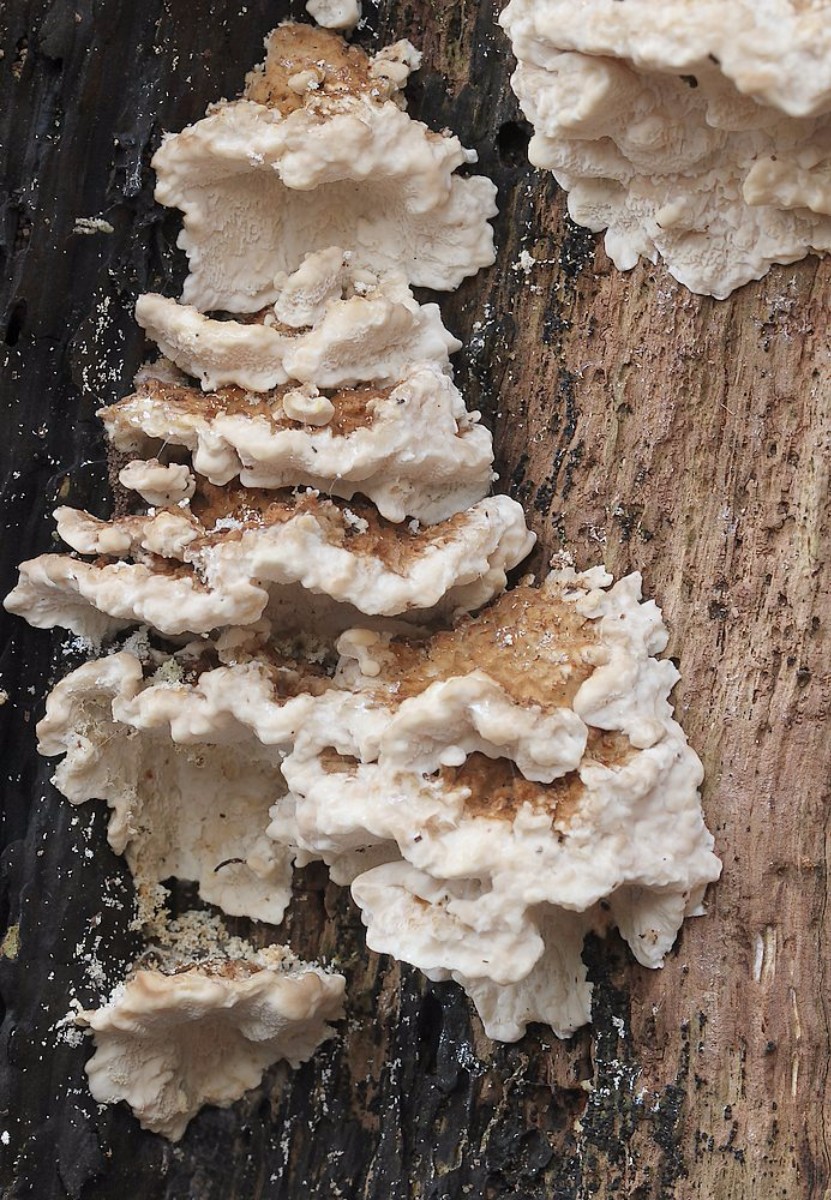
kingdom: Fungi
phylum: Basidiomycota
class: Agaricomycetes
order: Polyporales
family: Polyporaceae
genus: Trametes
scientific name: Trametes
